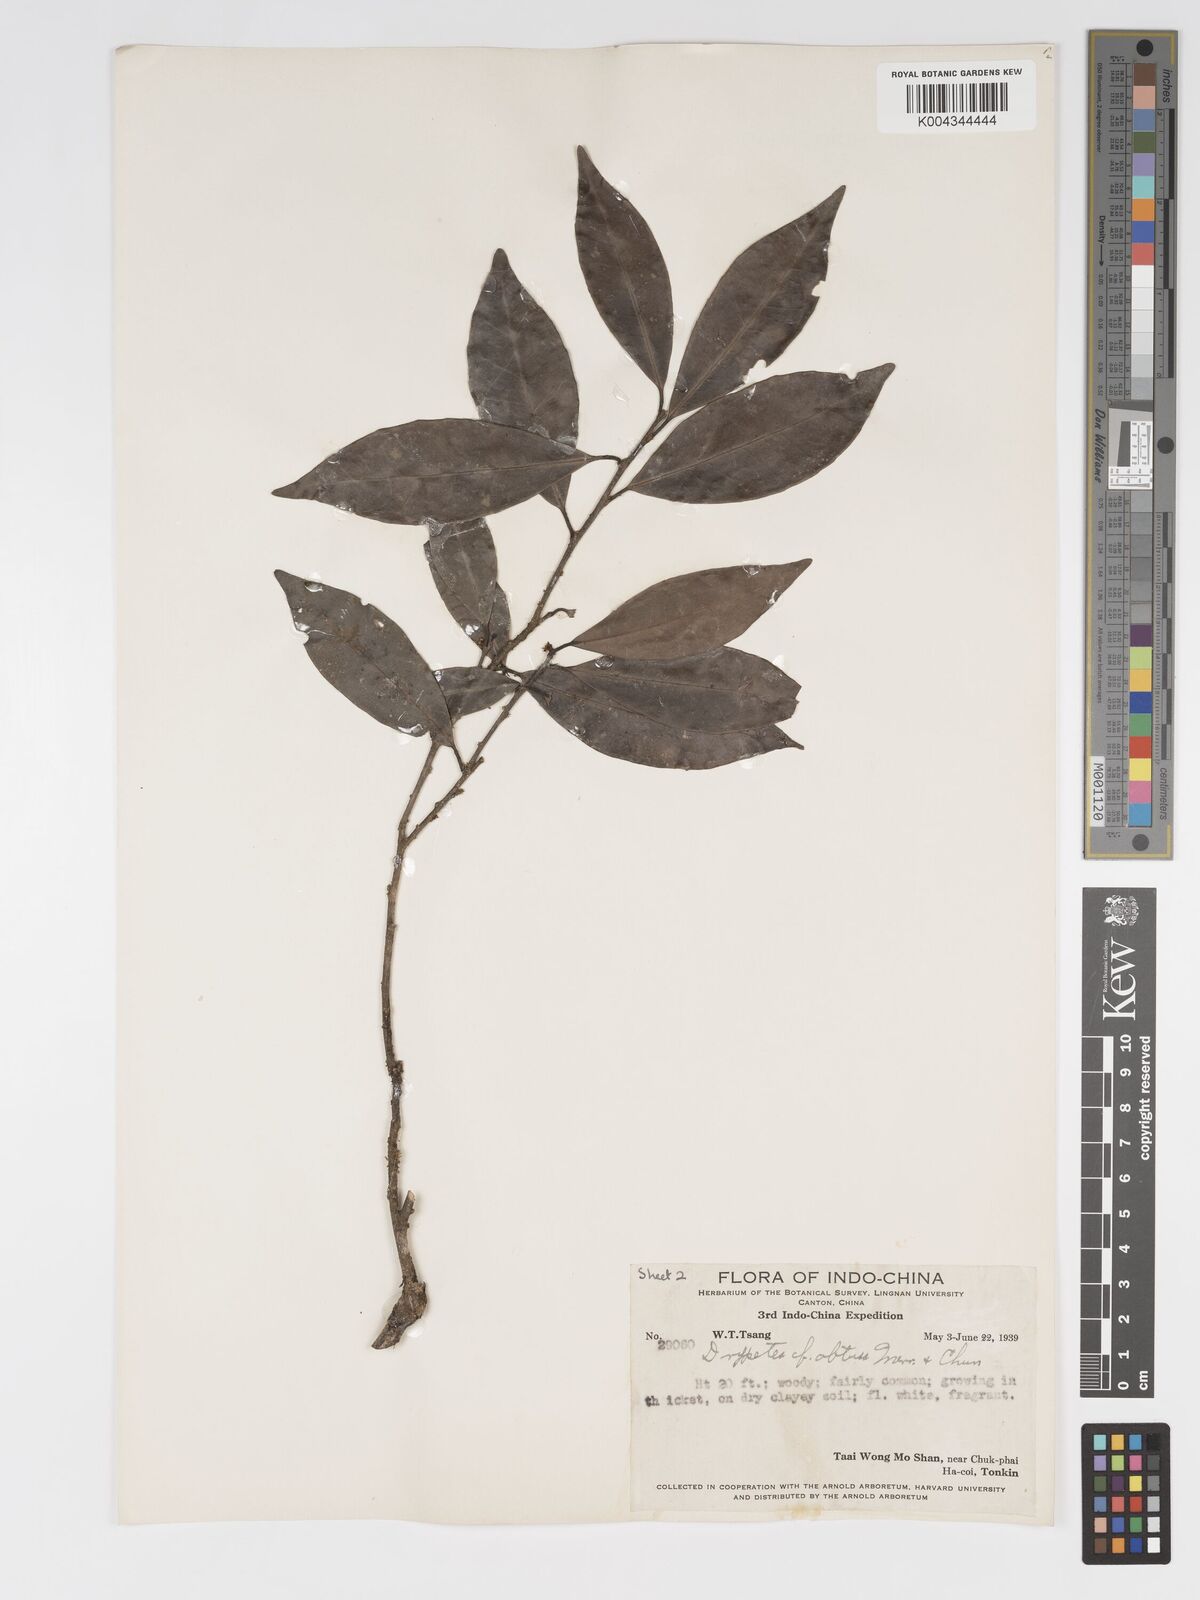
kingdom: Plantae
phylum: Tracheophyta
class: Magnoliopsida
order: Malpighiales
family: Putranjivaceae
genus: Drypetes
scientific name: Drypetes obtusa
